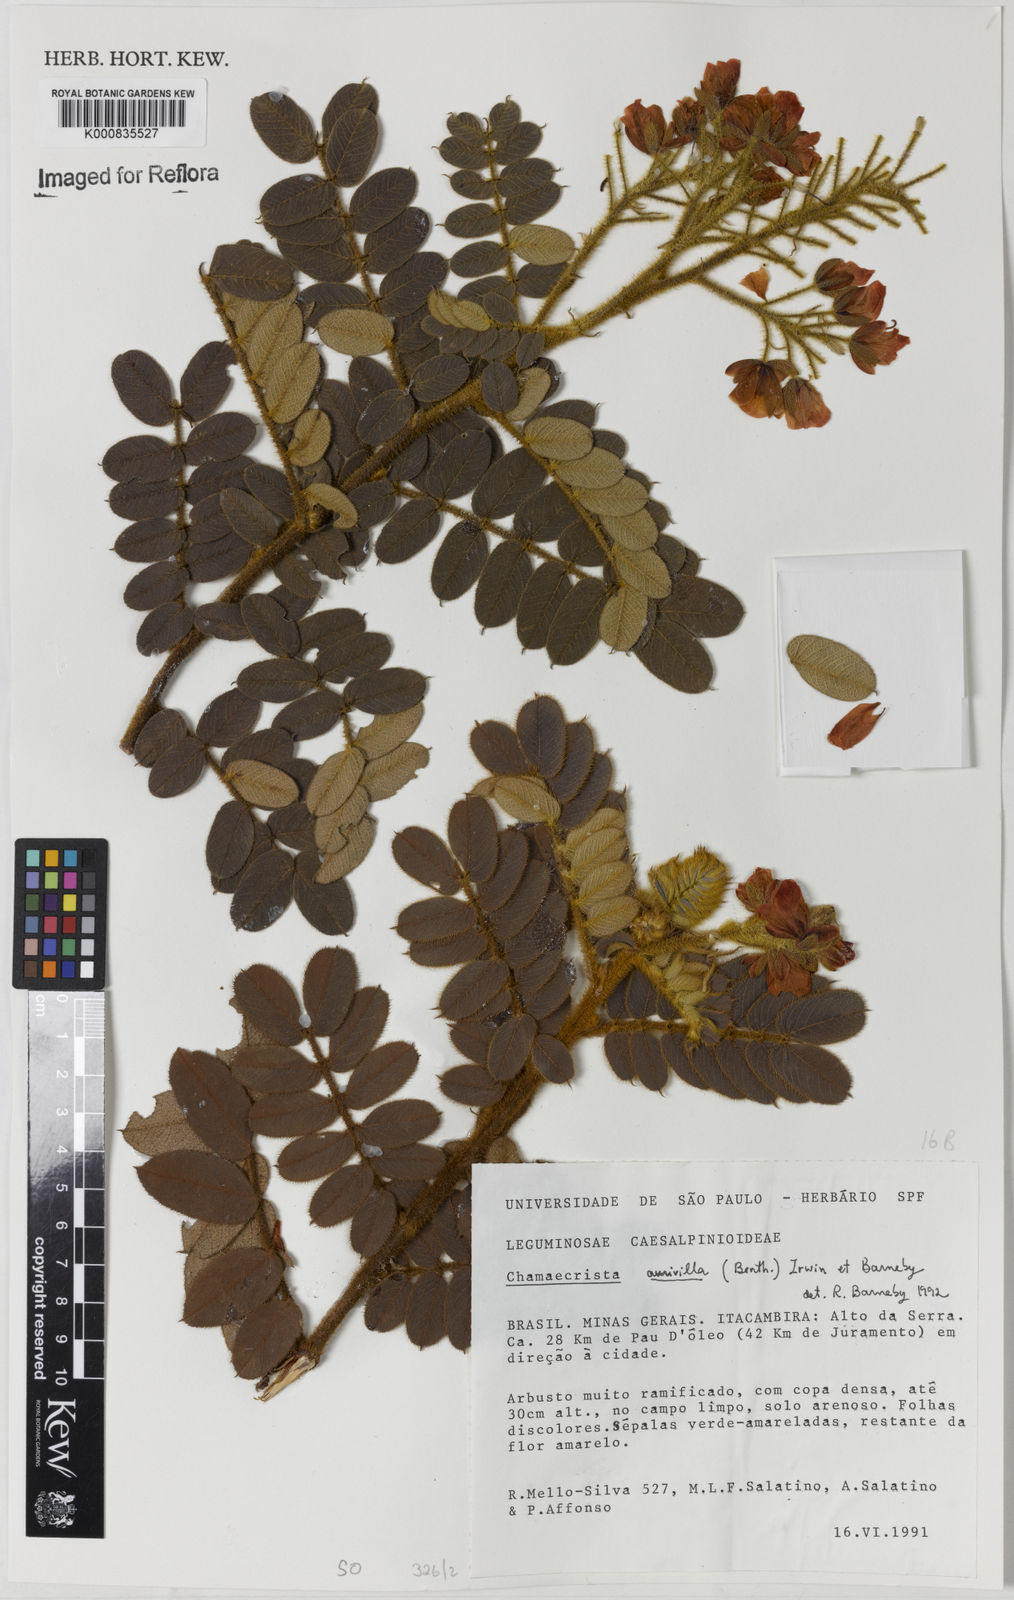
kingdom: Plantae
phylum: Tracheophyta
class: Magnoliopsida
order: Fabales
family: Fabaceae
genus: Chamaecrista
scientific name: Chamaecrista aurivilla
